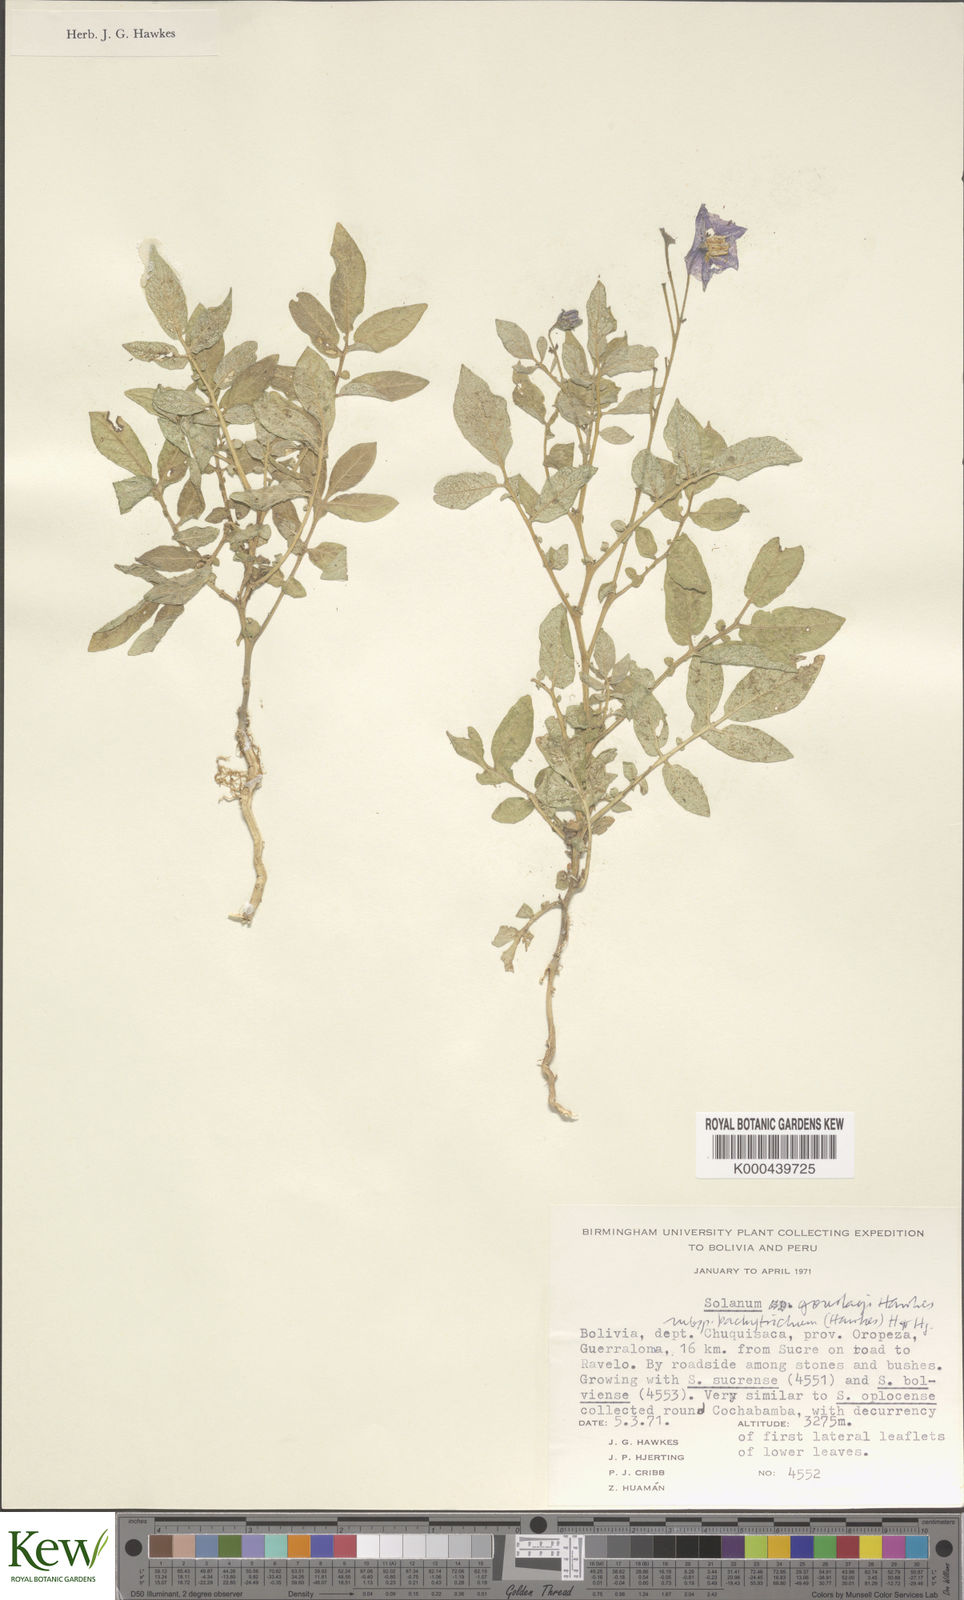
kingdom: Plantae
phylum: Tracheophyta
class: Magnoliopsida
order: Solanales
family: Solanaceae
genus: Solanum
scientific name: Solanum brevicaule
